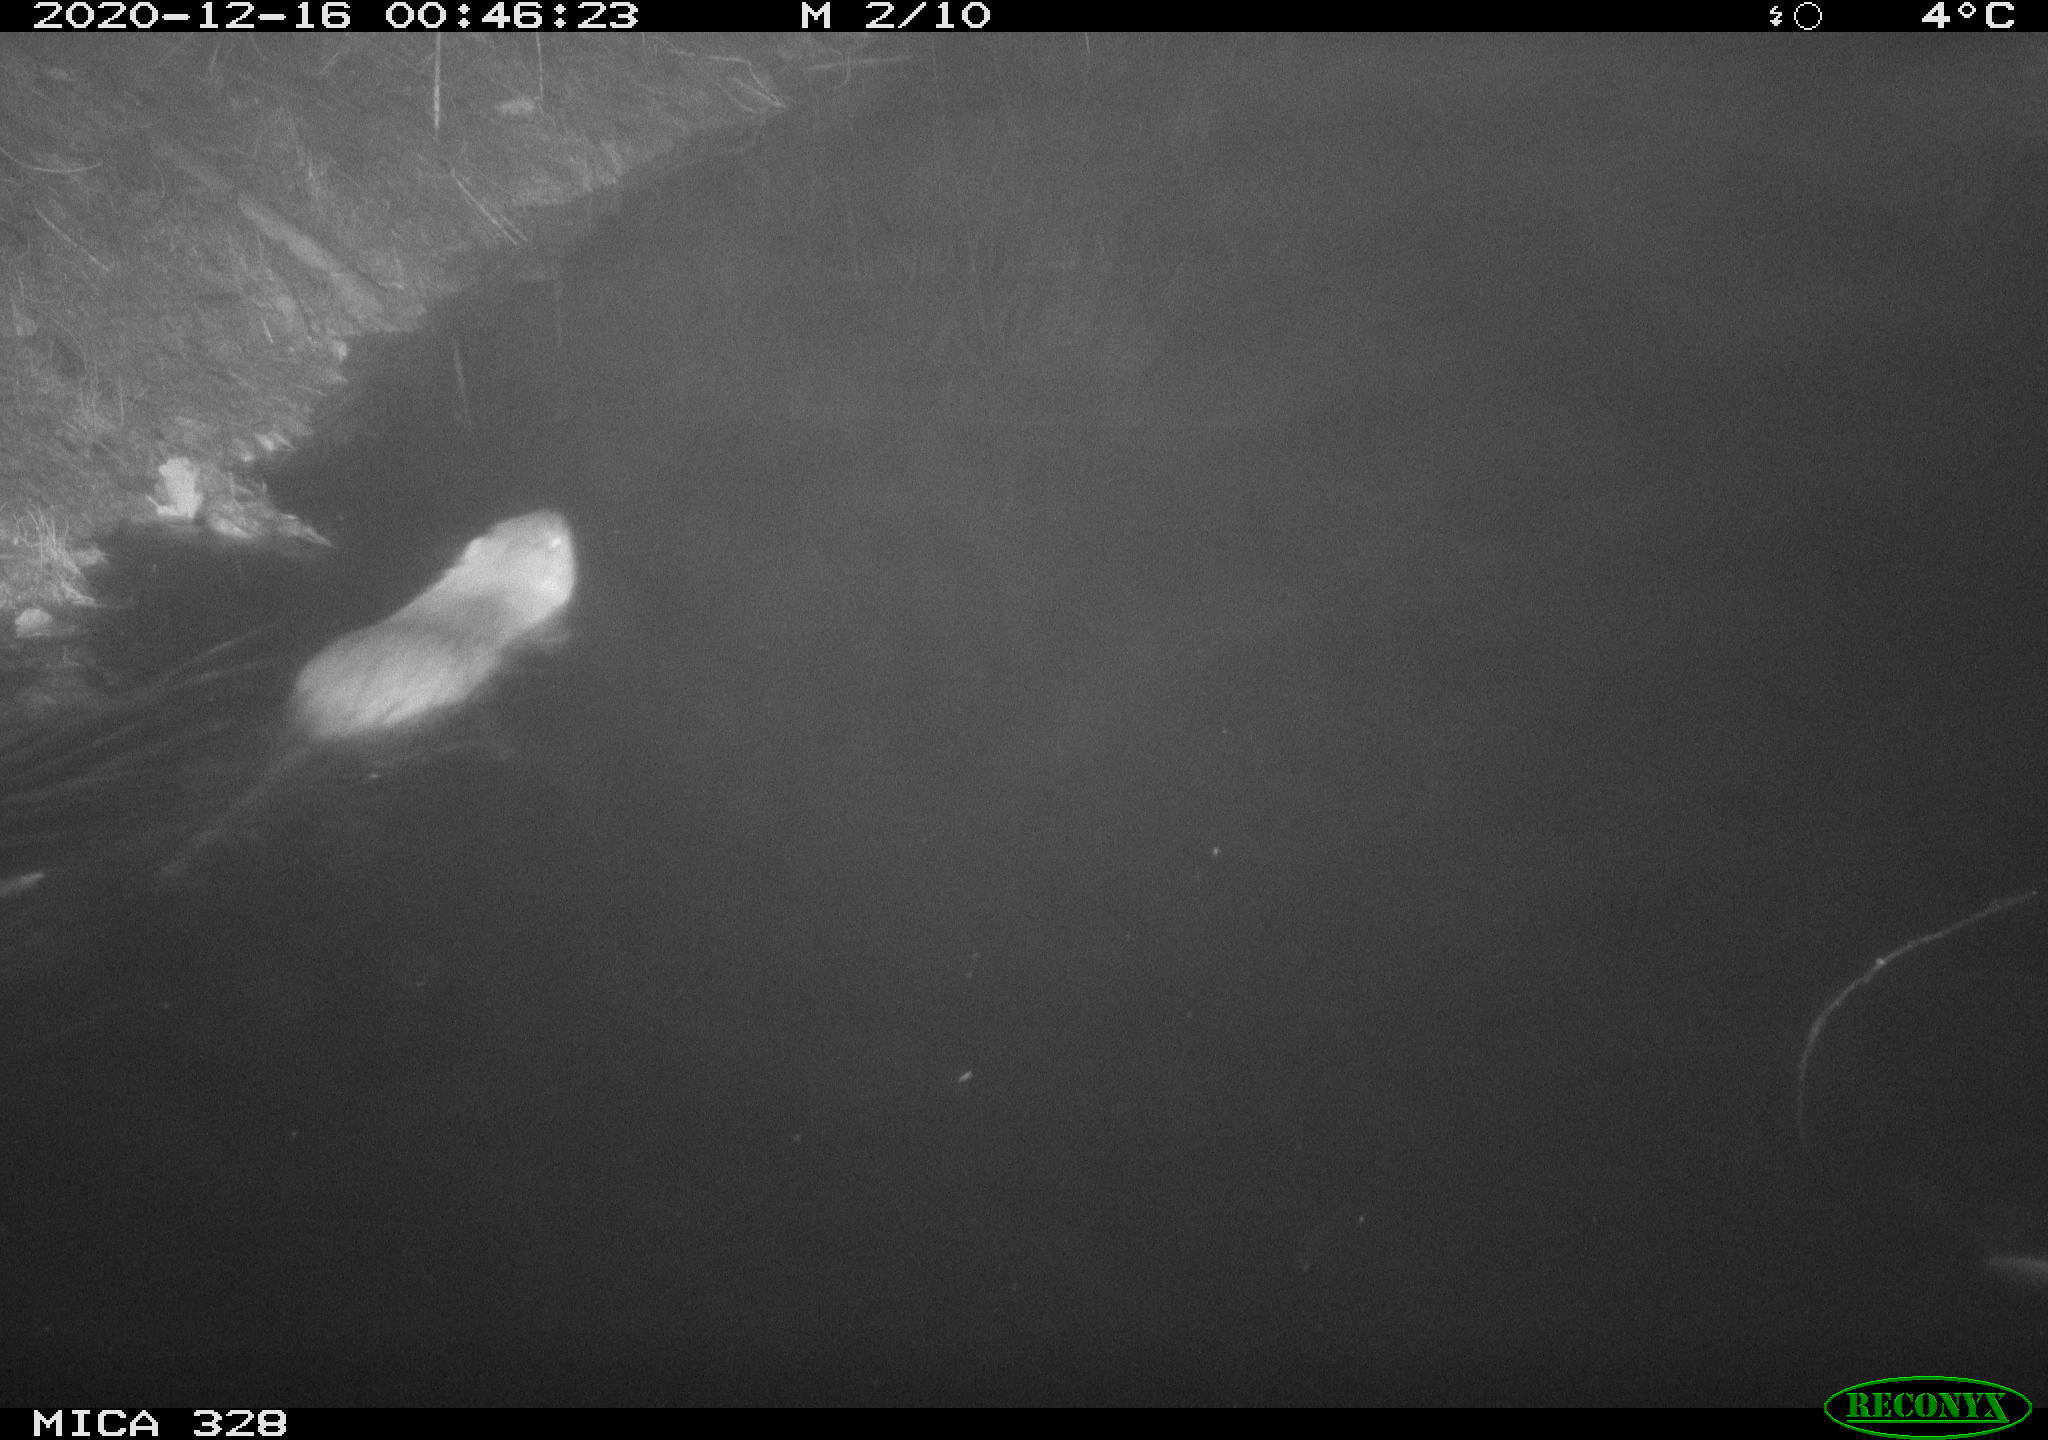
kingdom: Animalia
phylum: Chordata
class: Mammalia
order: Rodentia
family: Myocastoridae
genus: Myocastor
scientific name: Myocastor coypus
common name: Coypu
